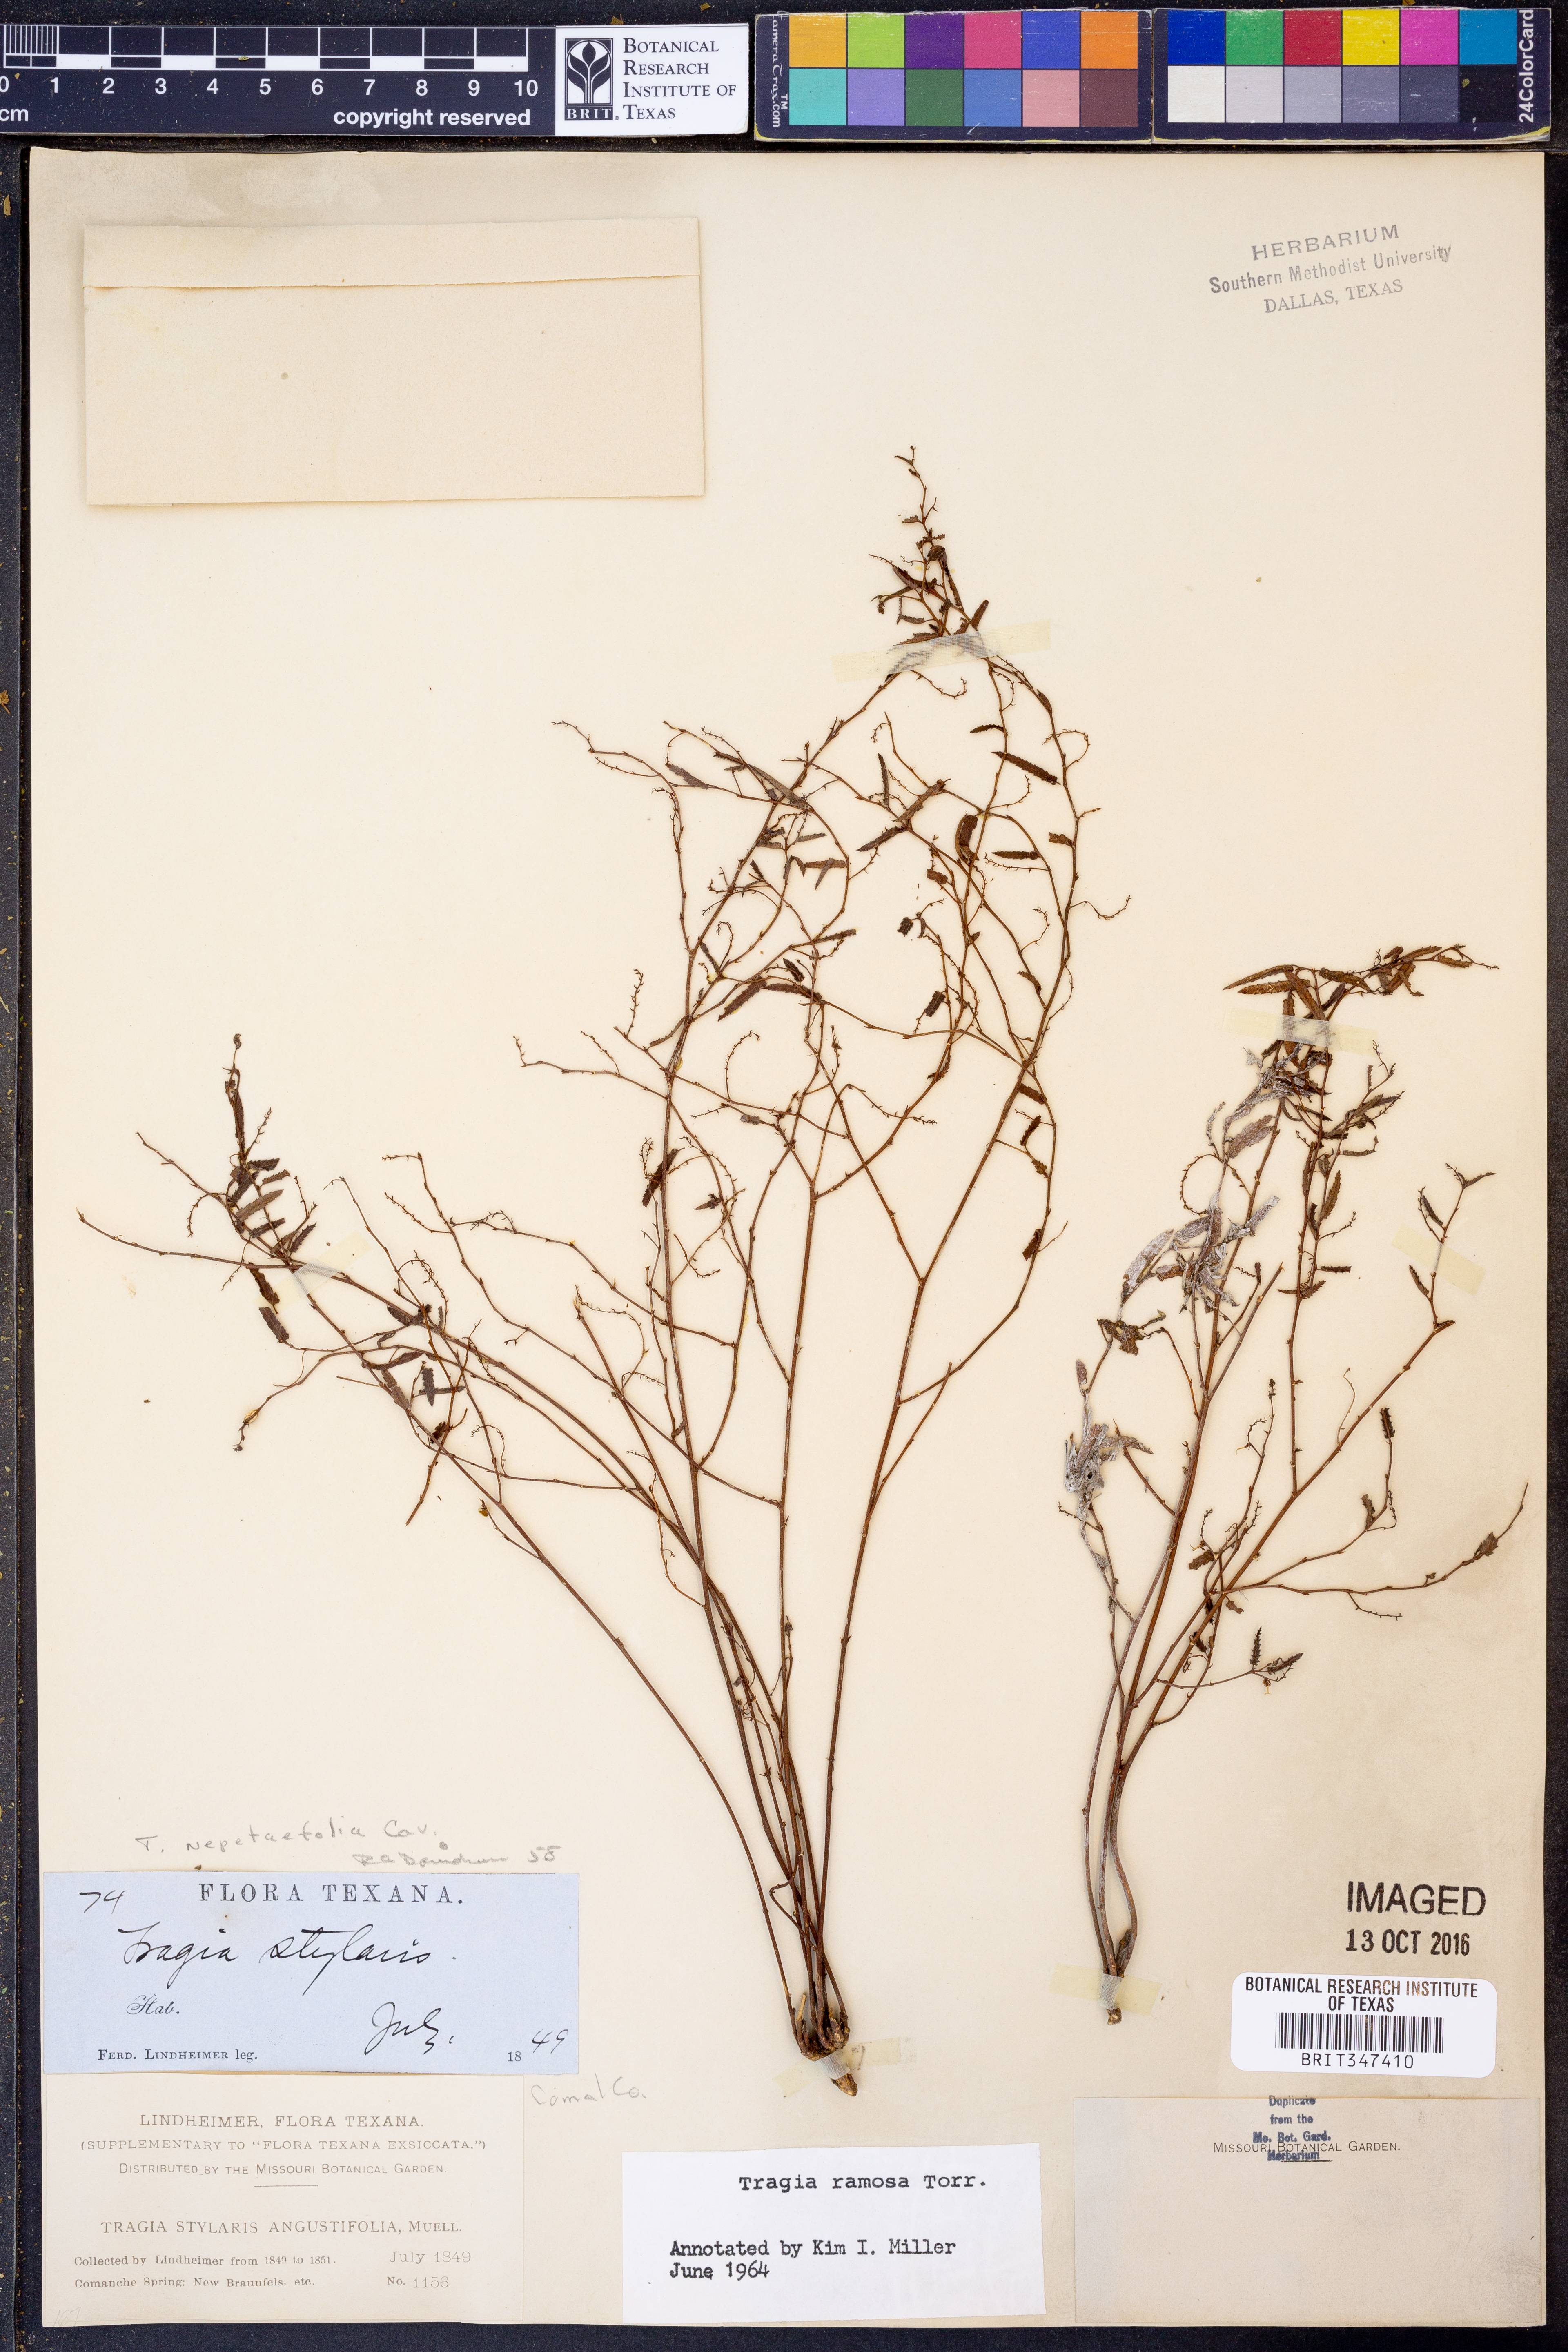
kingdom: Plantae
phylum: Tracheophyta
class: Magnoliopsida
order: Malpighiales
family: Euphorbiaceae
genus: Tragia
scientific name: Tragia ramosa
